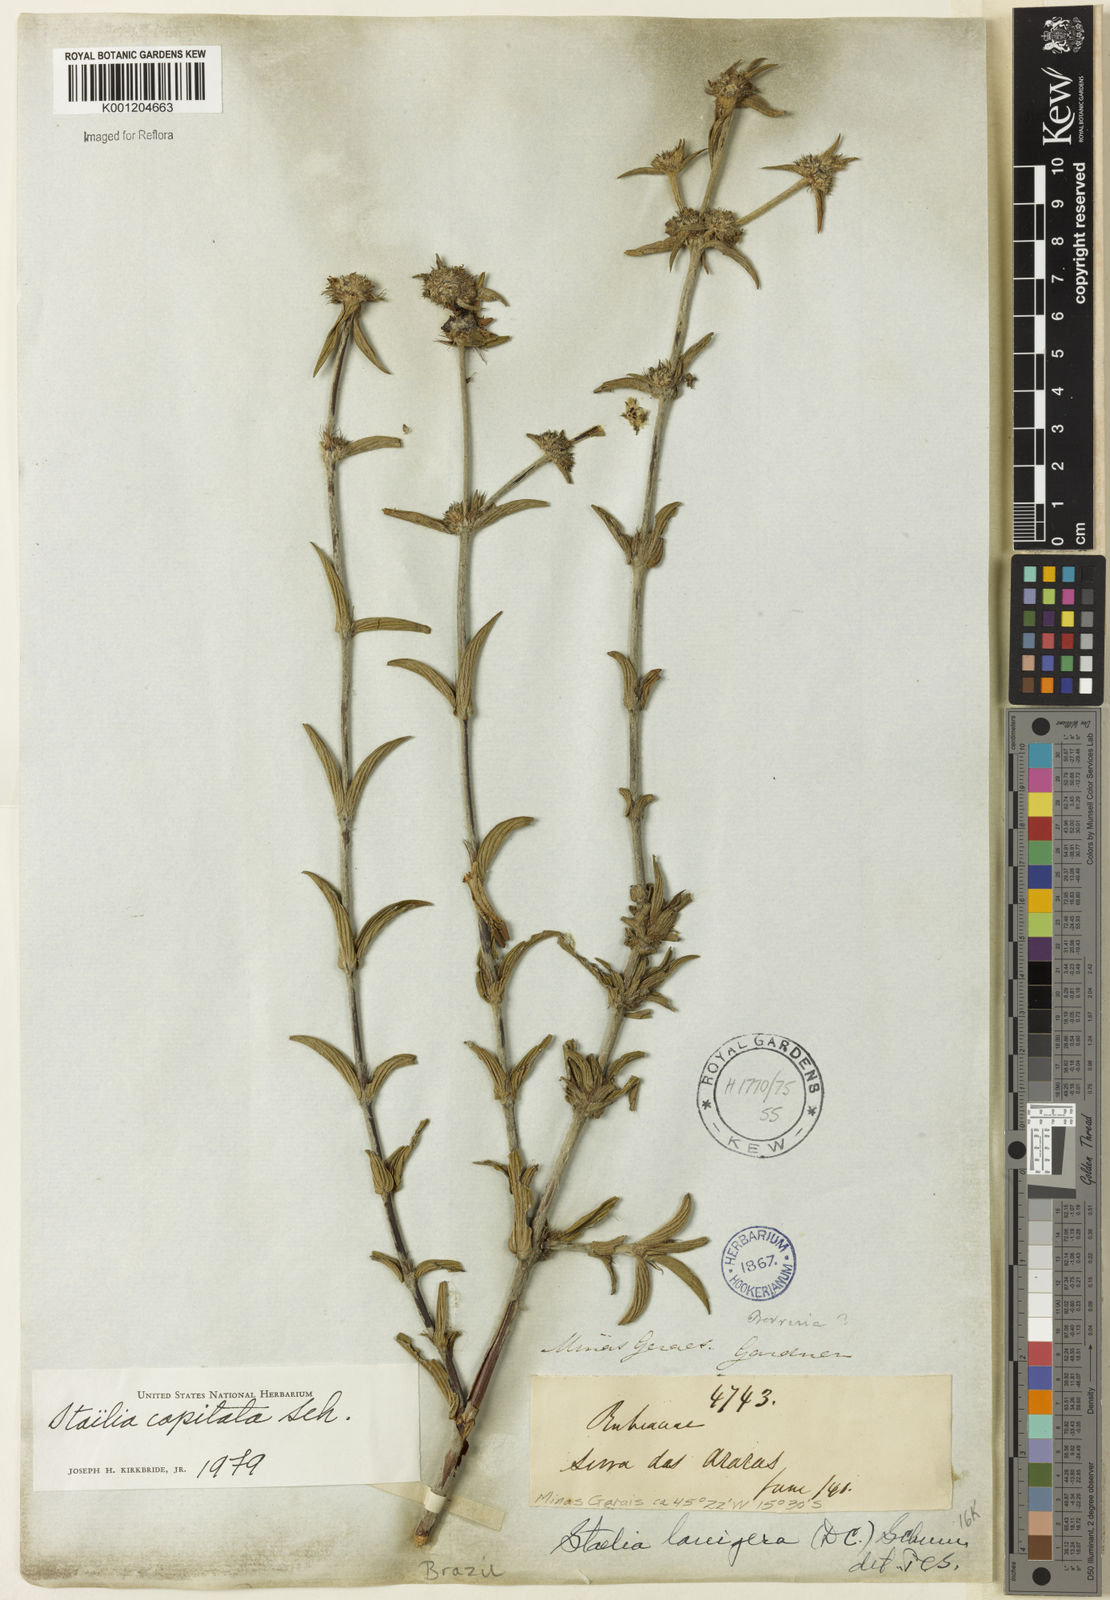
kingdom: Plantae
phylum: Tracheophyta
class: Magnoliopsida
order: Gentianales
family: Rubiaceae
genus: Planaltina
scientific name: Planaltina capitata
